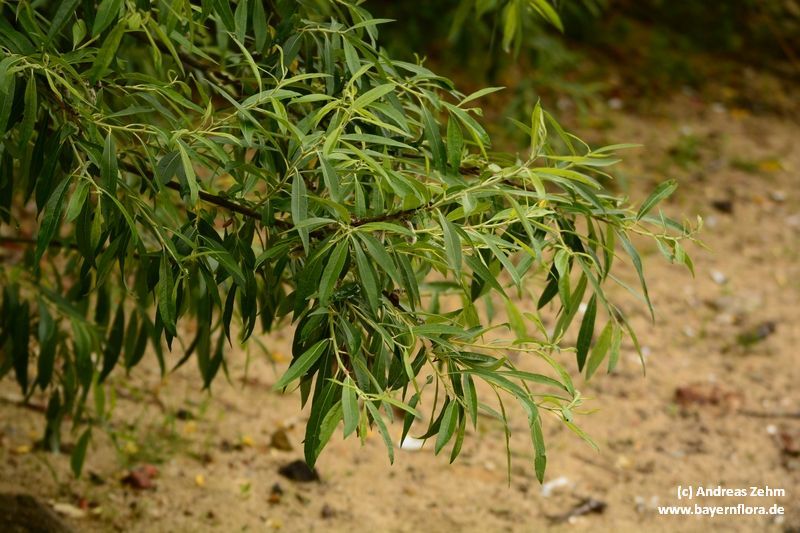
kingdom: Plantae
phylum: Tracheophyta
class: Magnoliopsida
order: Malpighiales
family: Salicaceae
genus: Salix
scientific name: Salix mollissima
